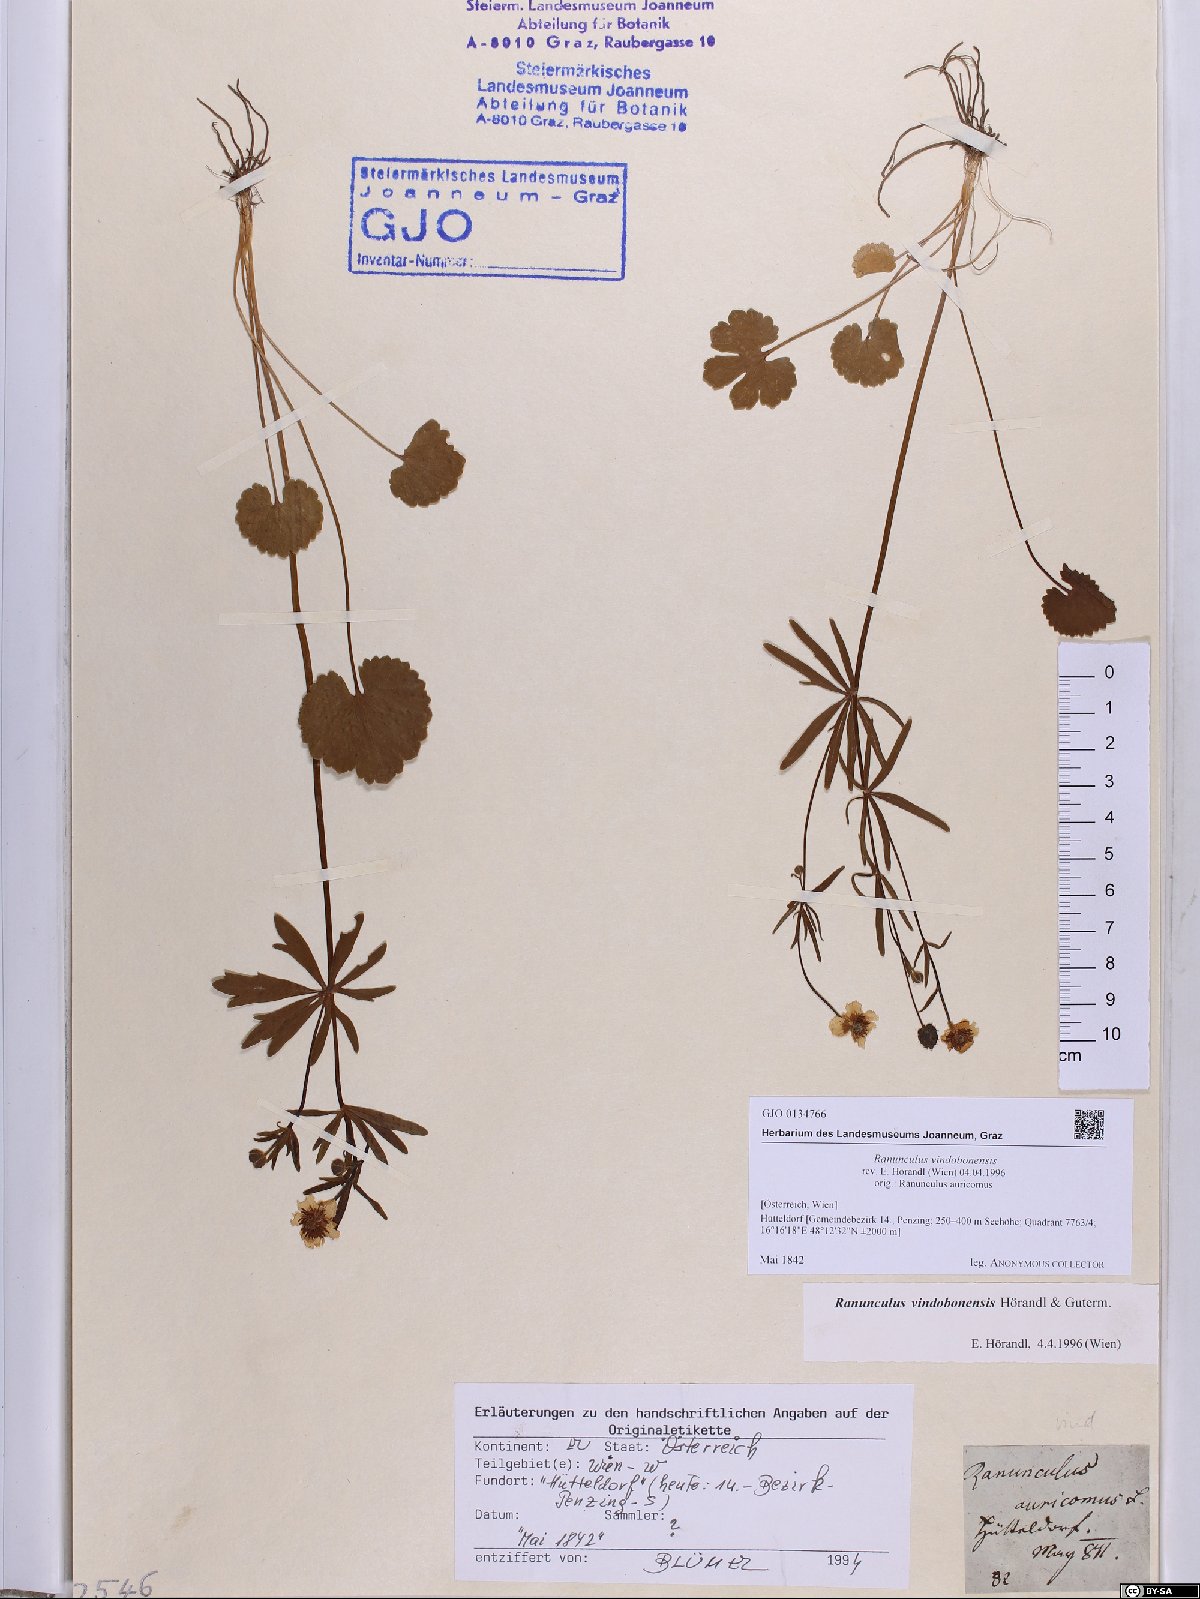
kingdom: Plantae
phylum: Tracheophyta
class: Magnoliopsida
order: Ranunculales
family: Ranunculaceae
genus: Ranunculus
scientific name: Ranunculus vindobonensis
